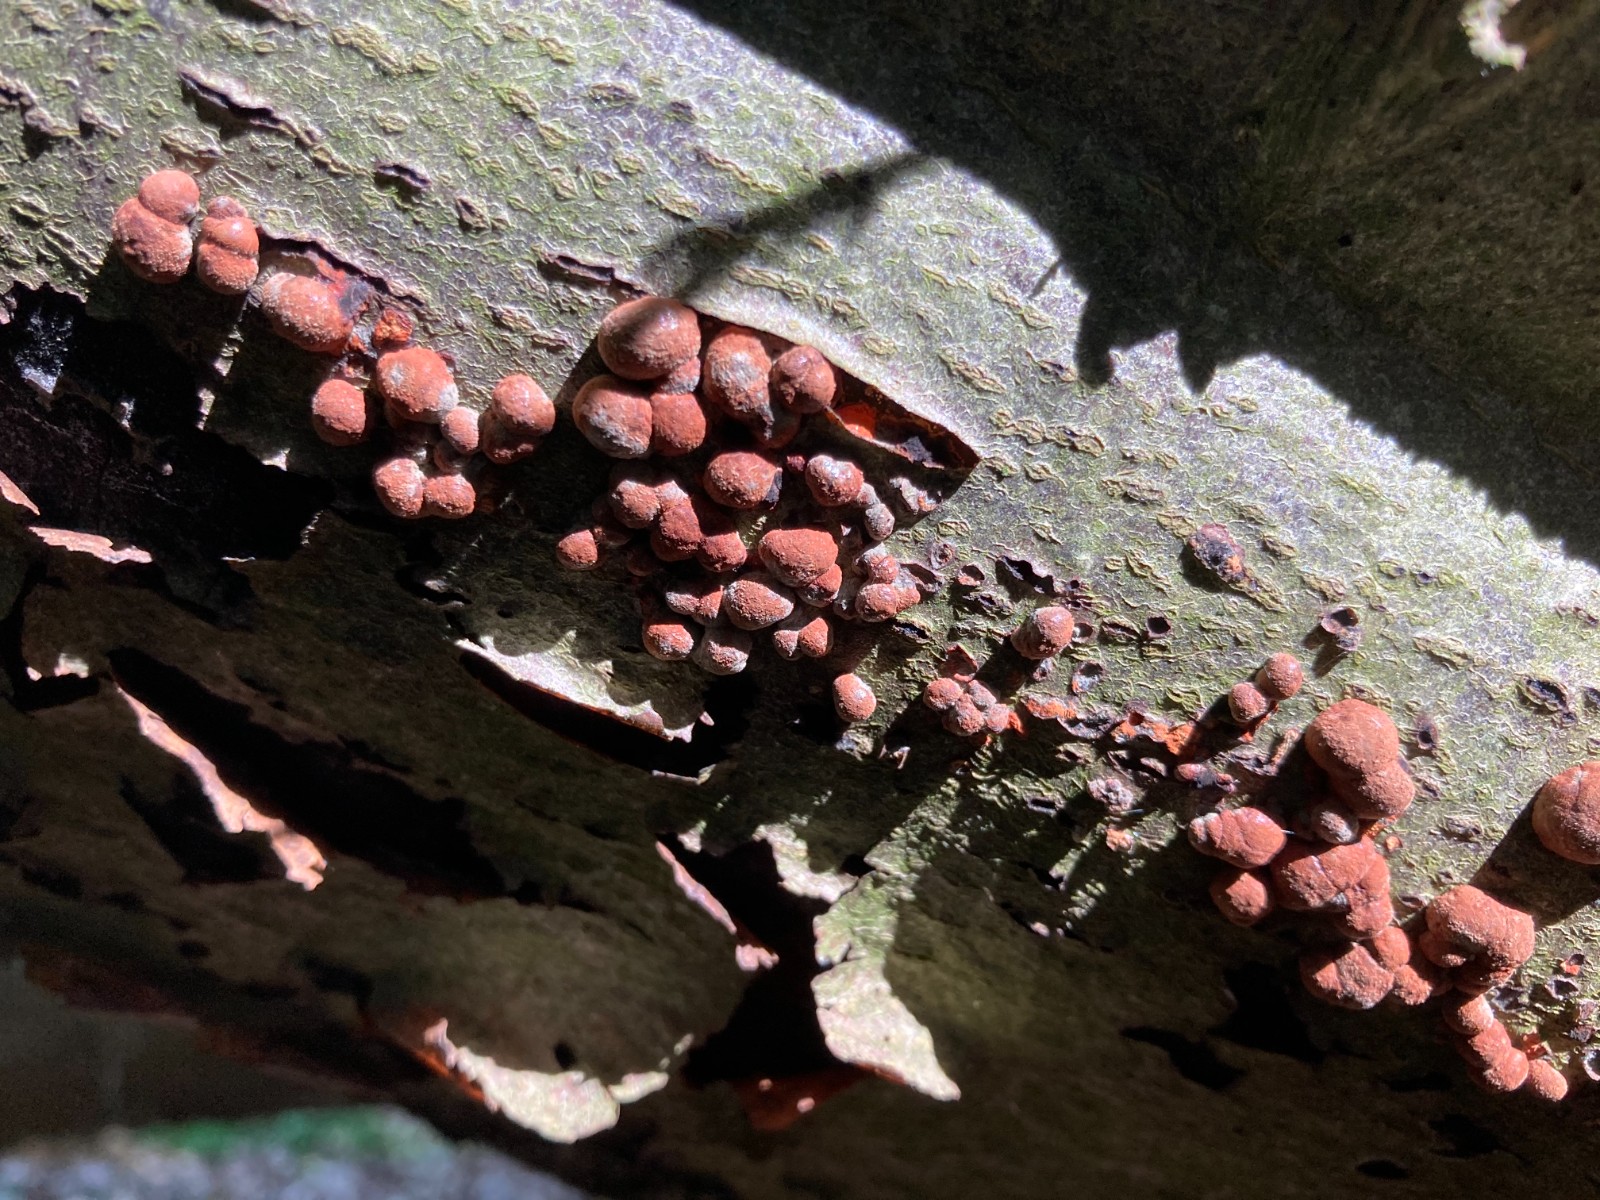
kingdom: Fungi
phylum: Ascomycota
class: Sordariomycetes
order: Xylariales
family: Hypoxylaceae
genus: Hypoxylon
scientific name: Hypoxylon fragiforme
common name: kuljordbær
